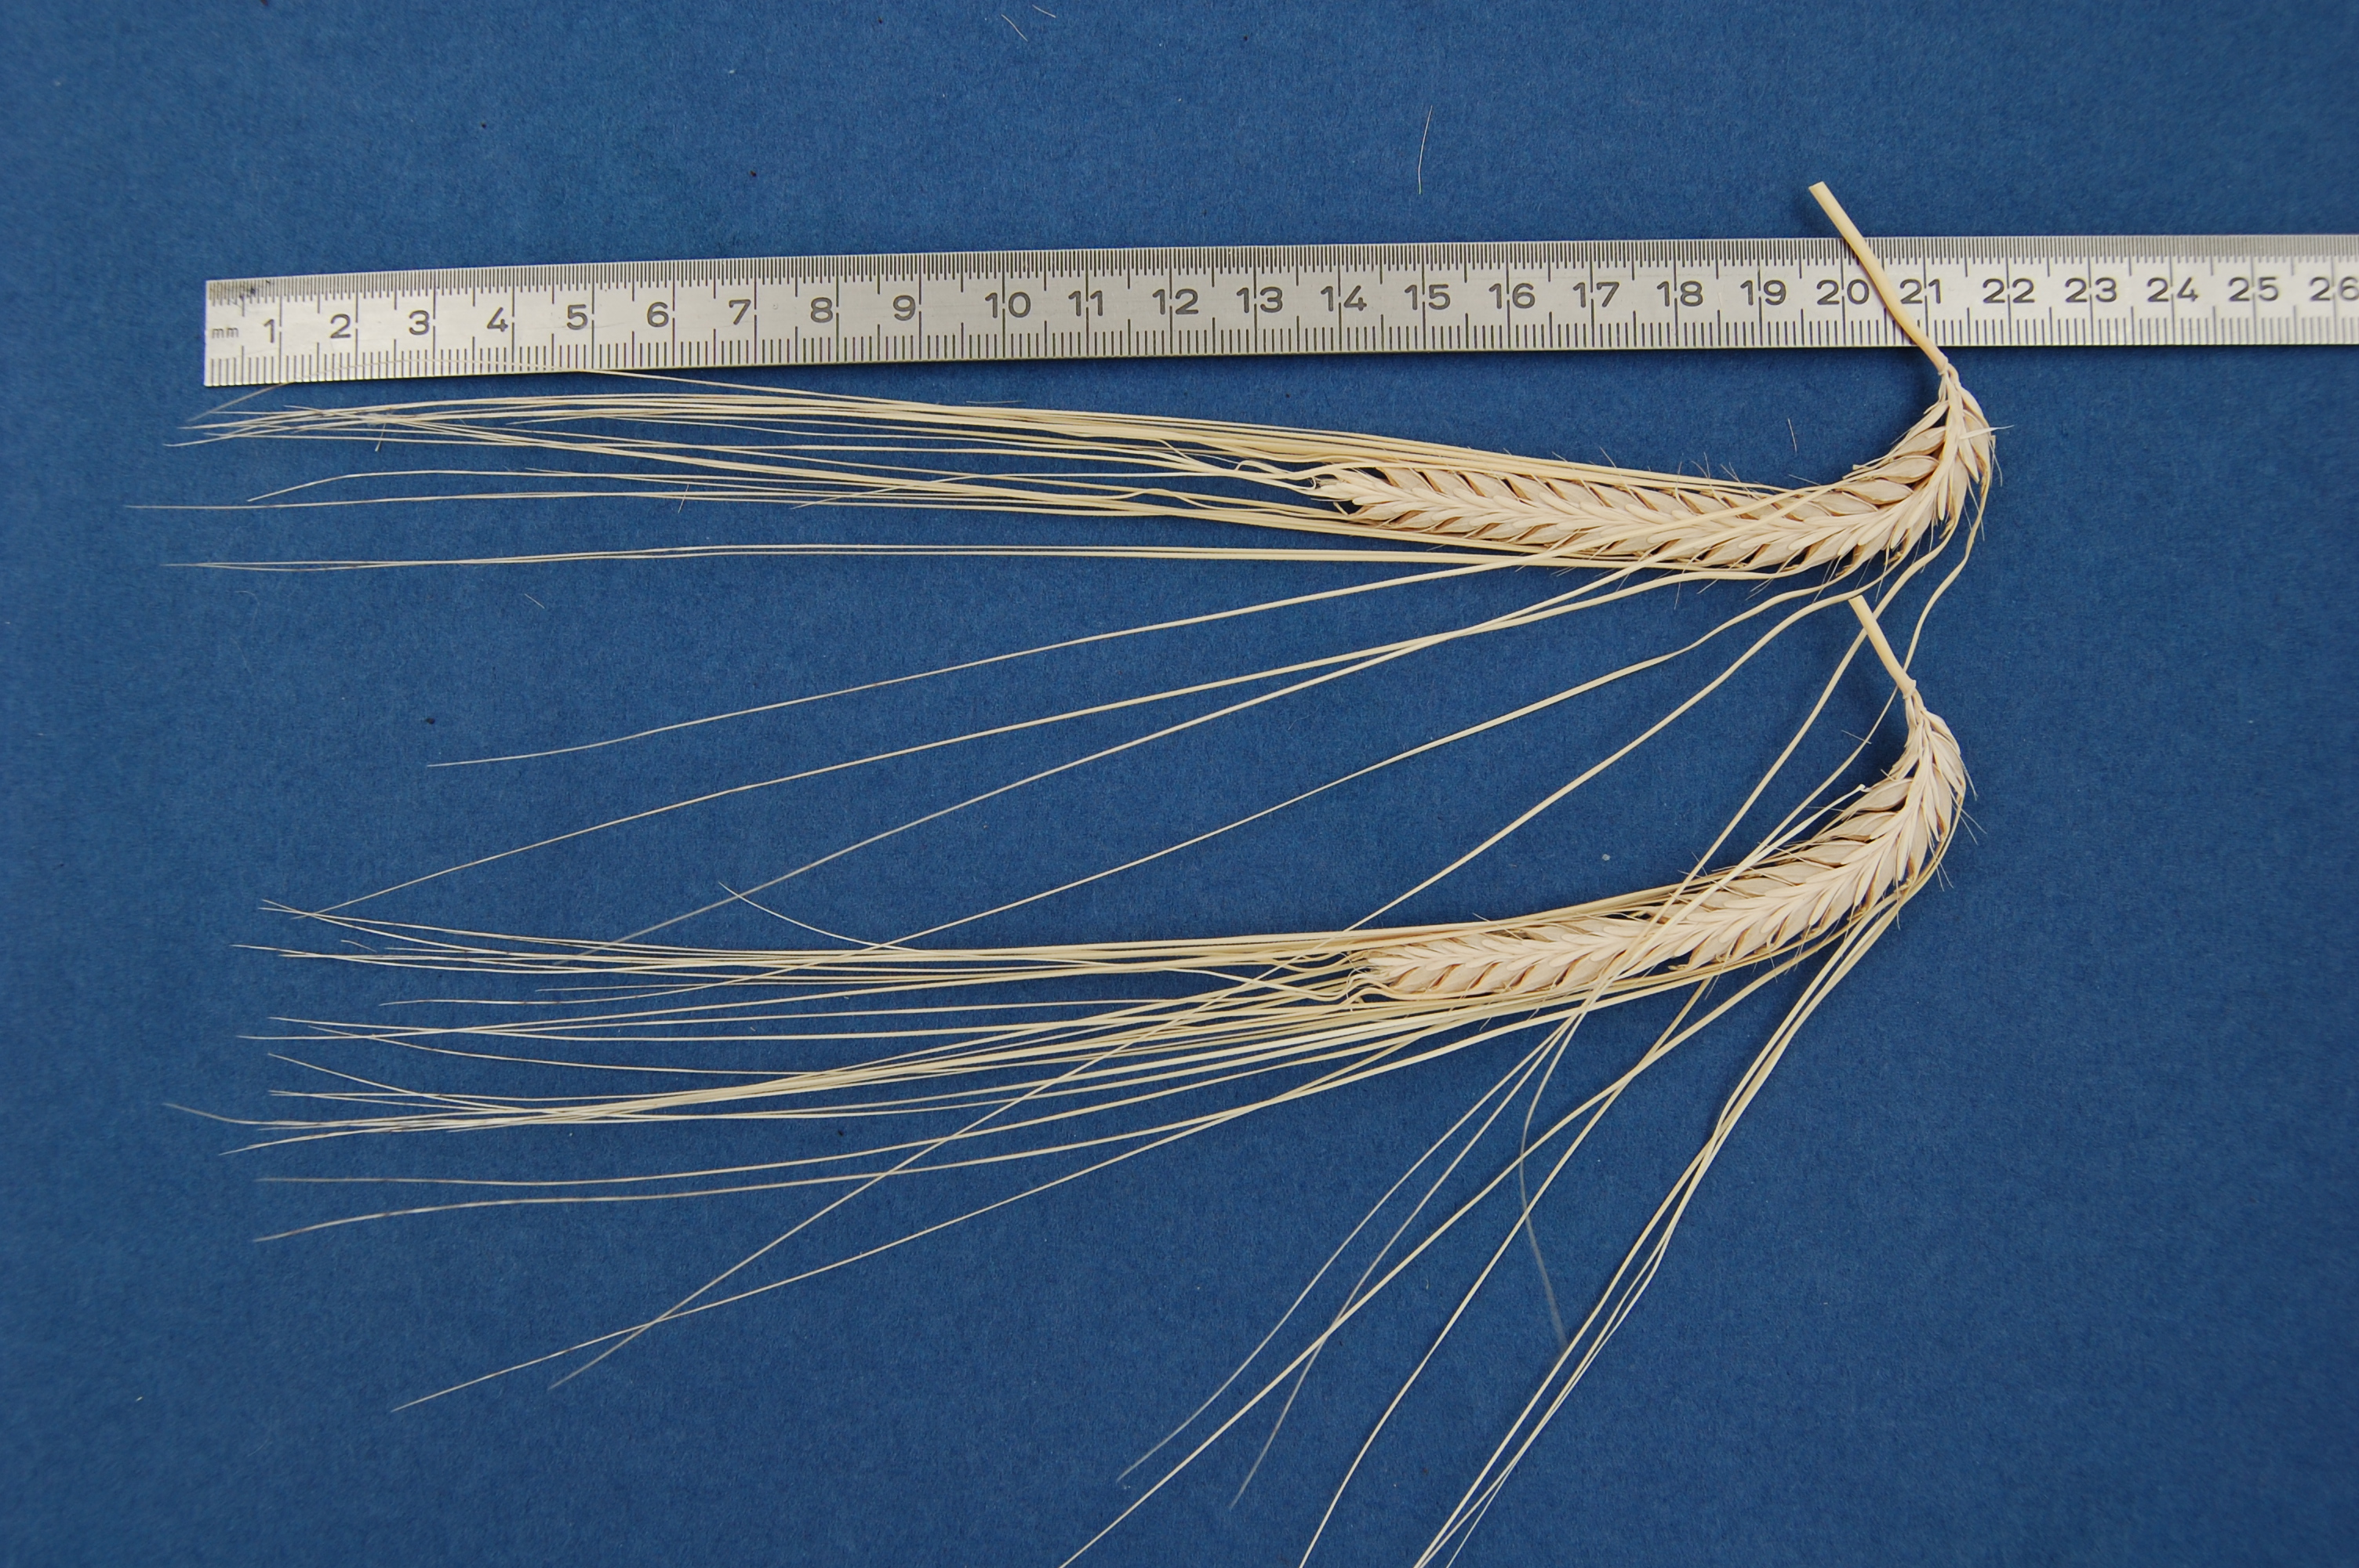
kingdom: Plantae
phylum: Tracheophyta
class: Liliopsida
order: Poales
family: Poaceae
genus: Hordeum
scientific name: Hordeum vulgare
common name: Common barley
